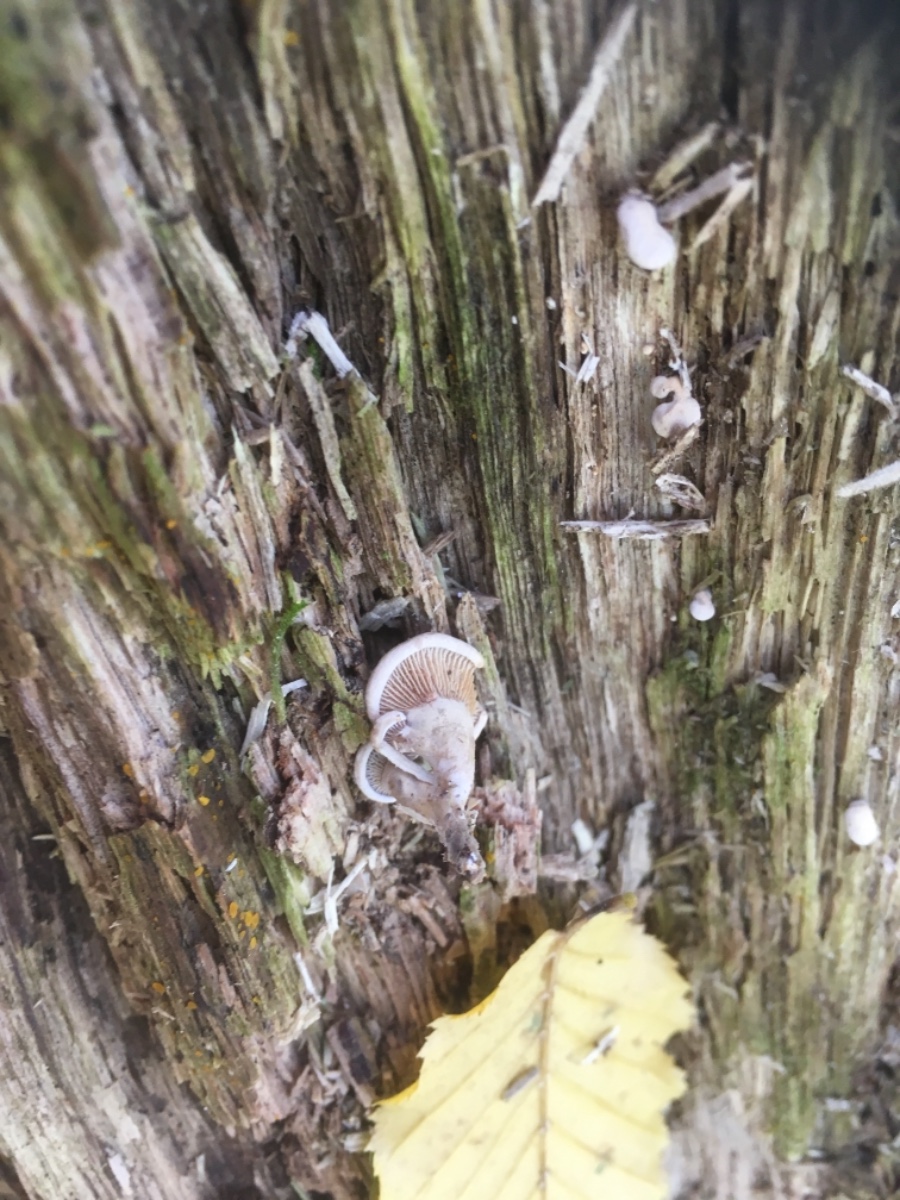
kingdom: Fungi
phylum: Basidiomycota
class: Agaricomycetes
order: Agaricales
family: Mycenaceae
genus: Panellus
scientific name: Panellus stipticus
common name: kliddet epaulethat
